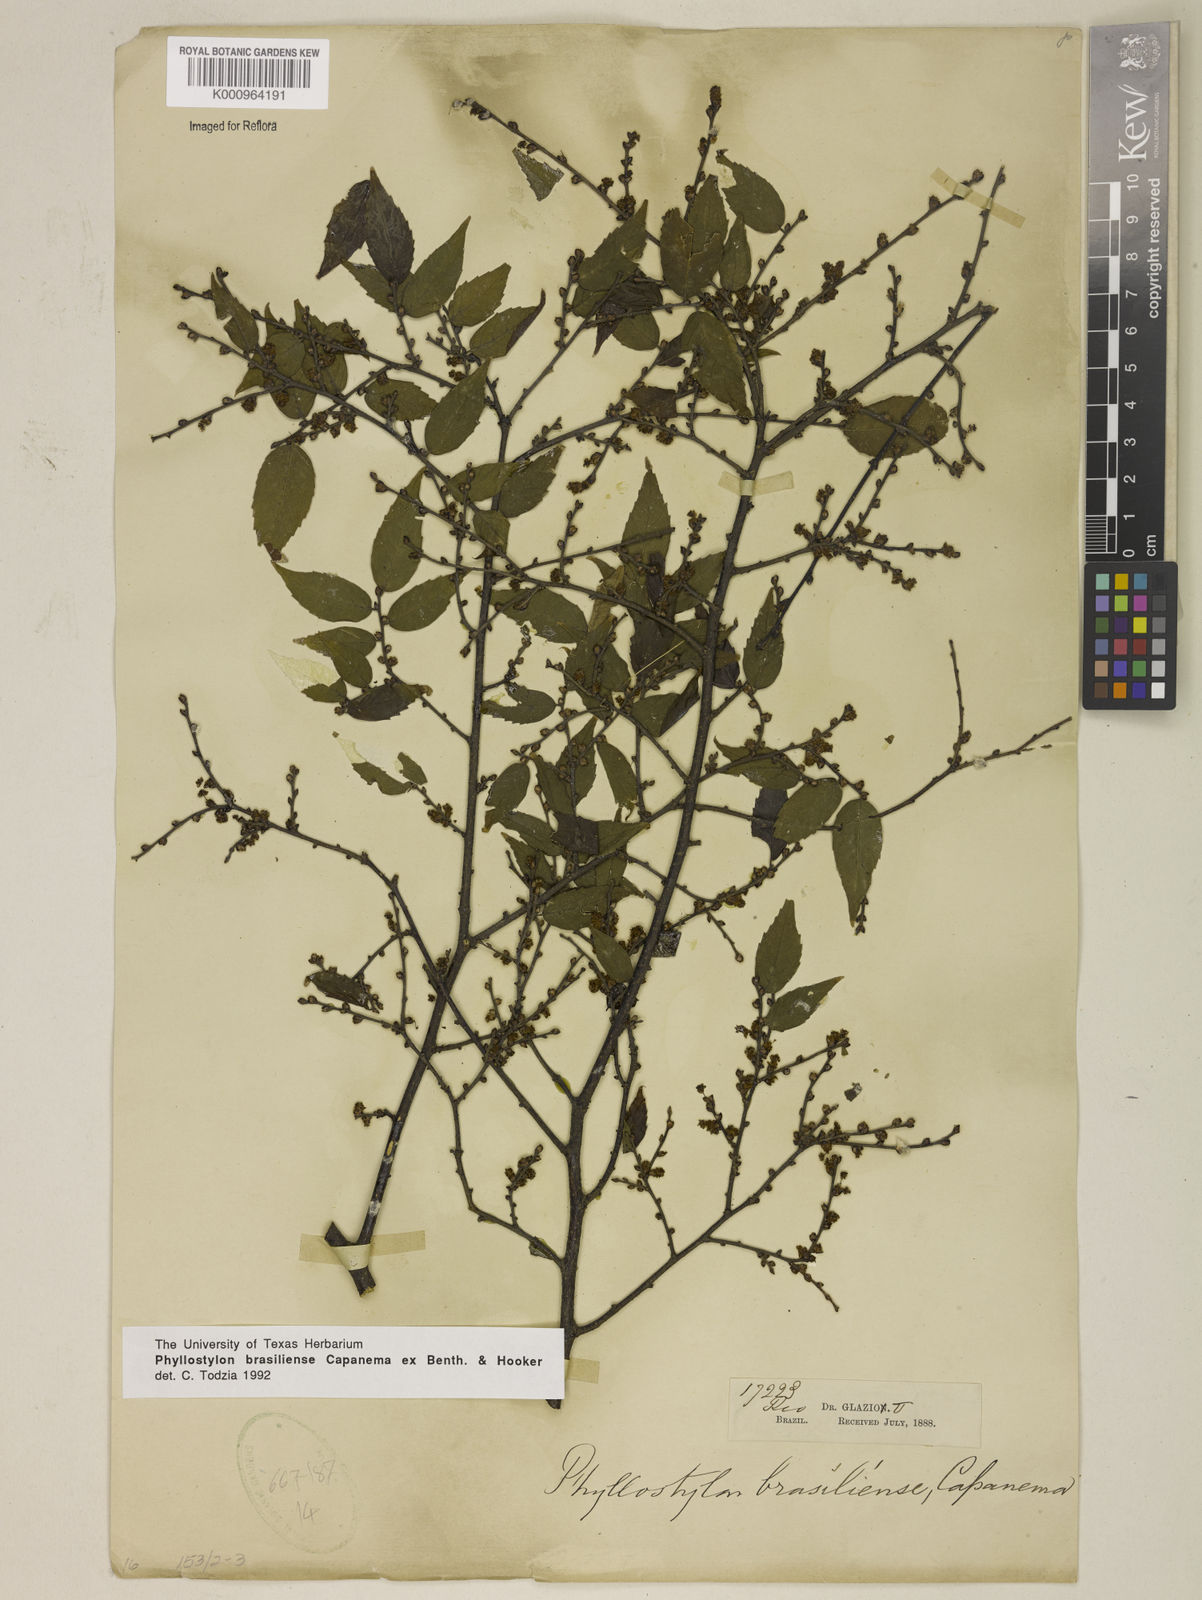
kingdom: Plantae
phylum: Tracheophyta
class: Magnoliopsida
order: Rosales
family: Ulmaceae
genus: Phyllostylon
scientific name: Phyllostylon brasiliensis
